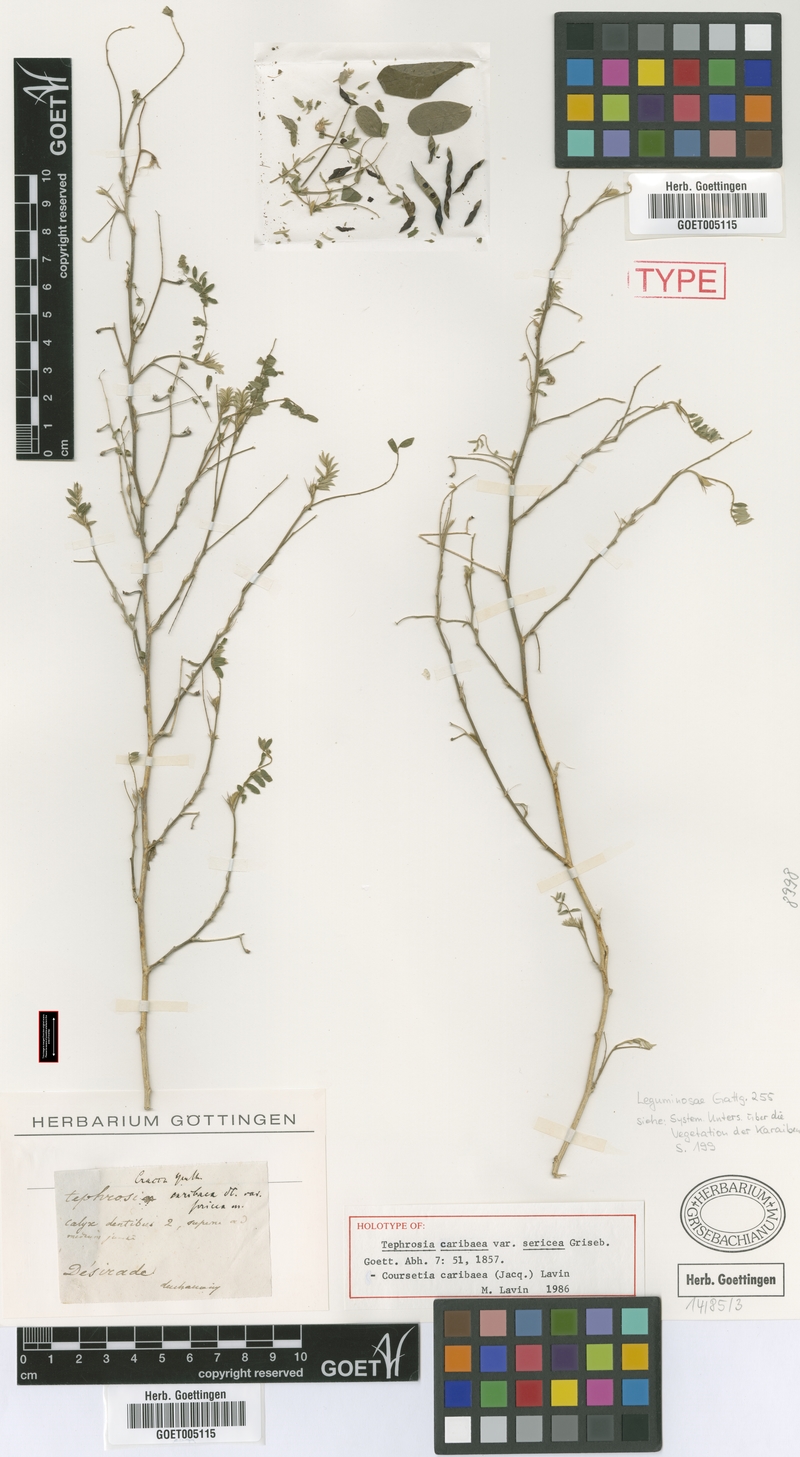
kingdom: Plantae
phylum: Tracheophyta
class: Magnoliopsida
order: Fabales
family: Fabaceae
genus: Coursetia
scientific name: Coursetia caribaea
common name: Anil falso
